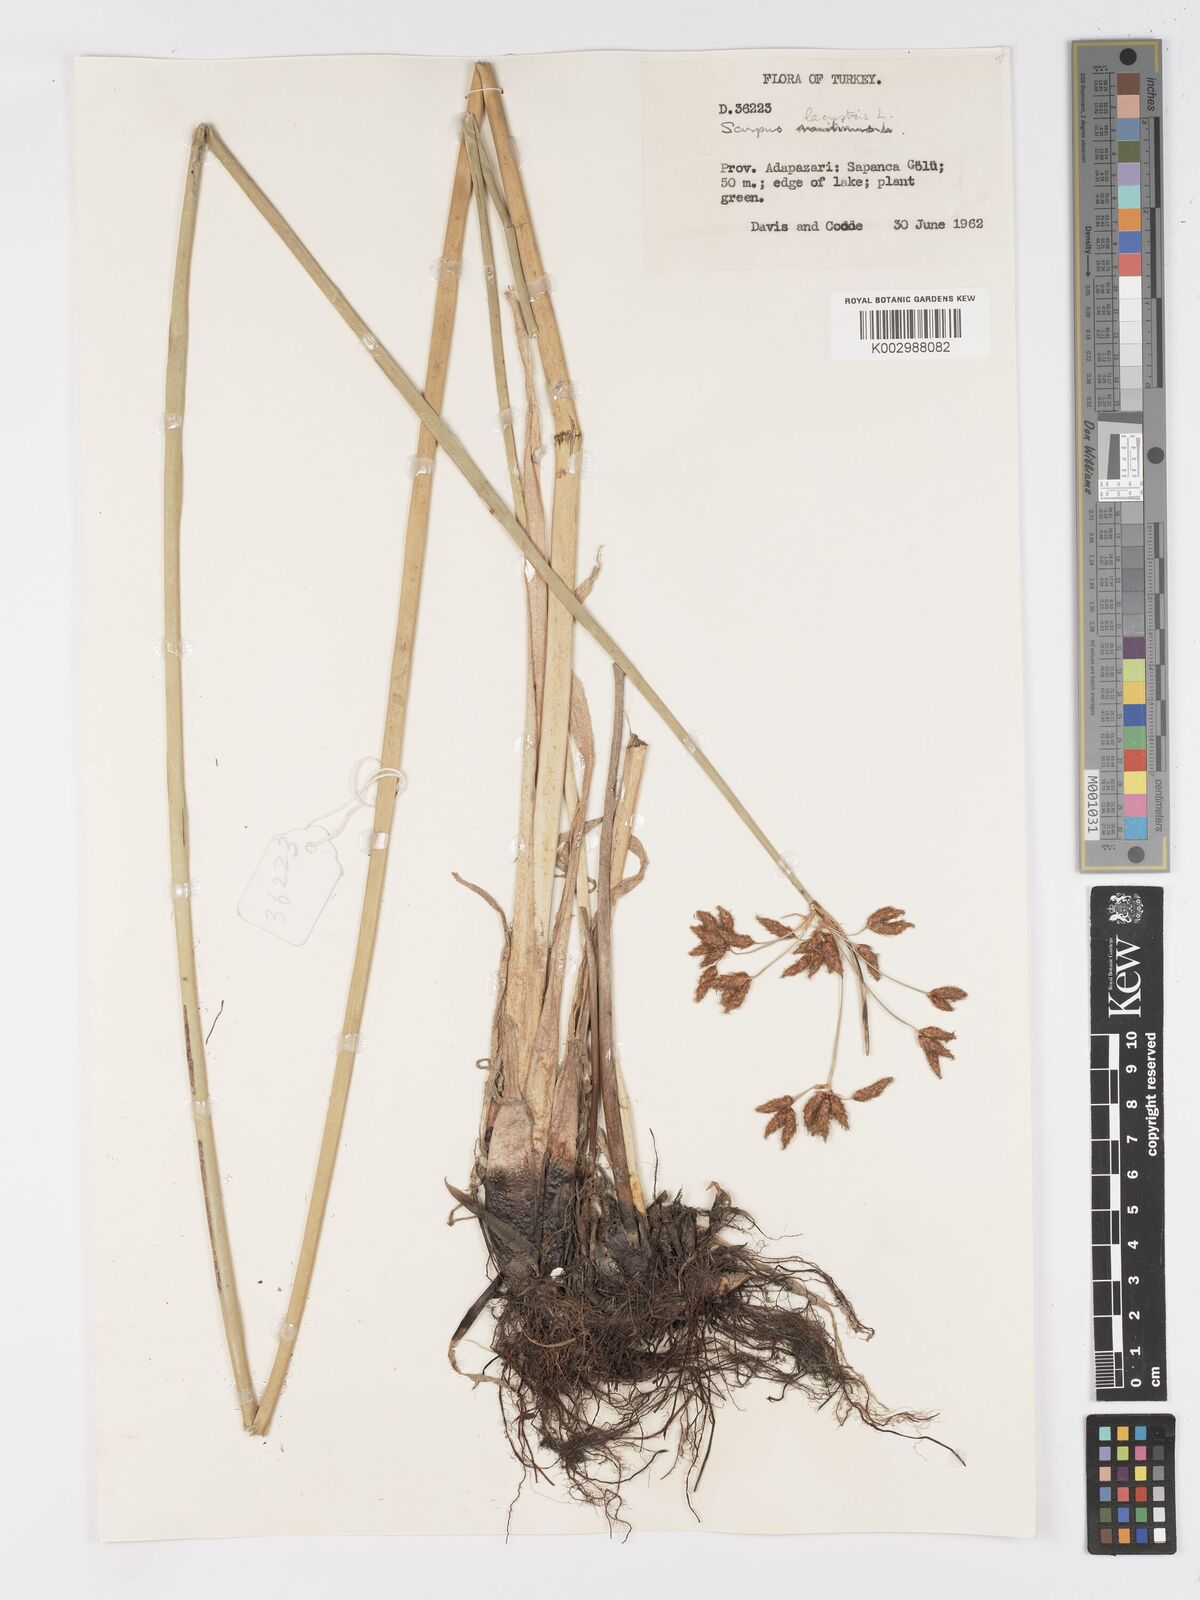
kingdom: Plantae
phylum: Tracheophyta
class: Liliopsida
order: Poales
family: Cyperaceae
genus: Schoenoplectus
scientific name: Schoenoplectus lacustris
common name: Common club-rush
